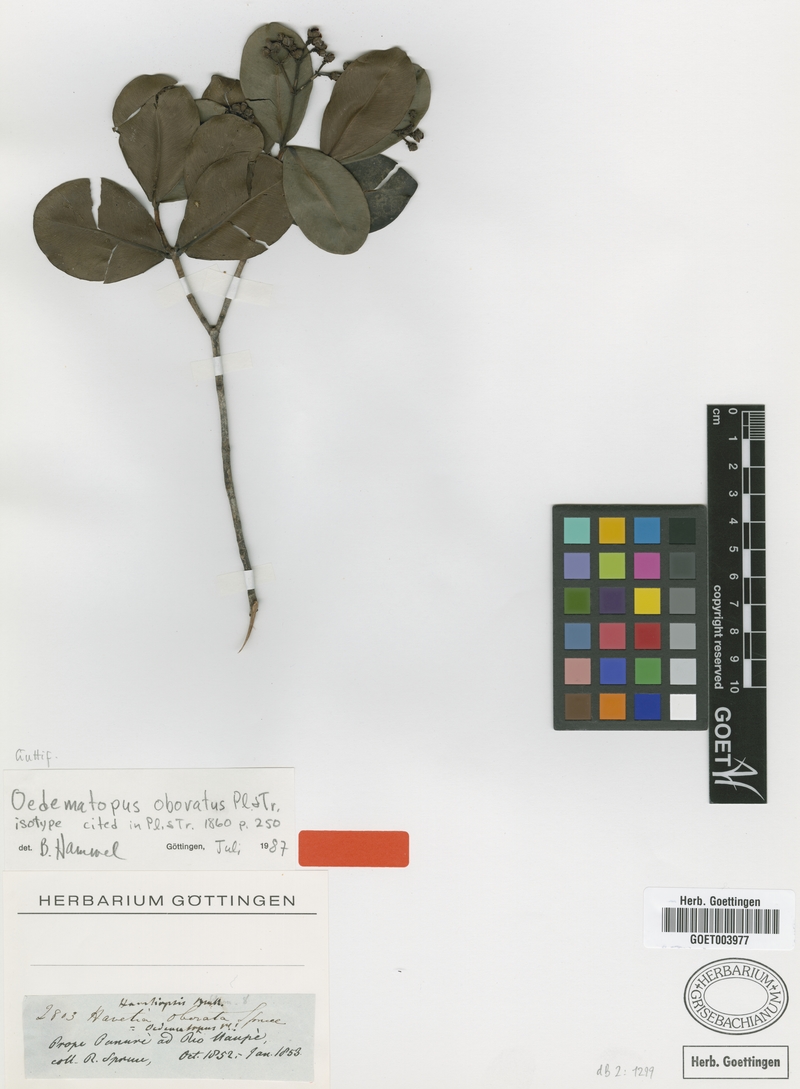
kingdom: Plantae
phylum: Tracheophyta
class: Magnoliopsida
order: Malpighiales
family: Clusiaceae
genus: Clusia
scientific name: Clusia obovata
